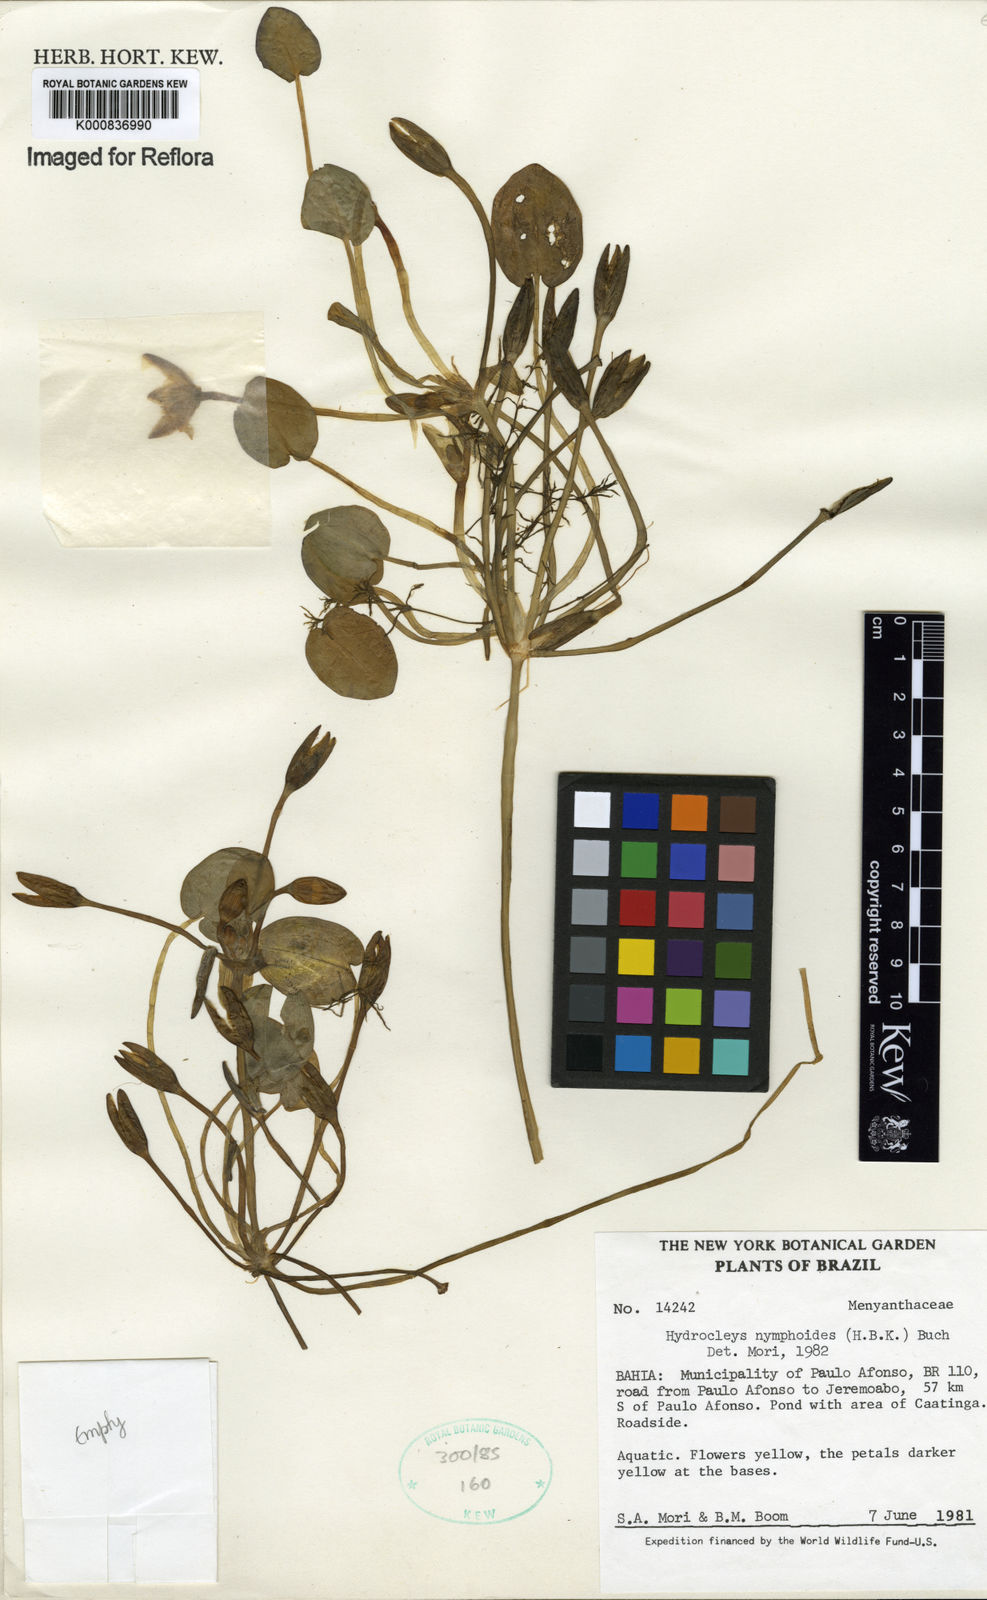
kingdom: Plantae
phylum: Tracheophyta
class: Liliopsida
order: Alismatales
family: Alismataceae
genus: Hydrocleys
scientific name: Hydrocleys nymphoides
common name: Water-poppy
